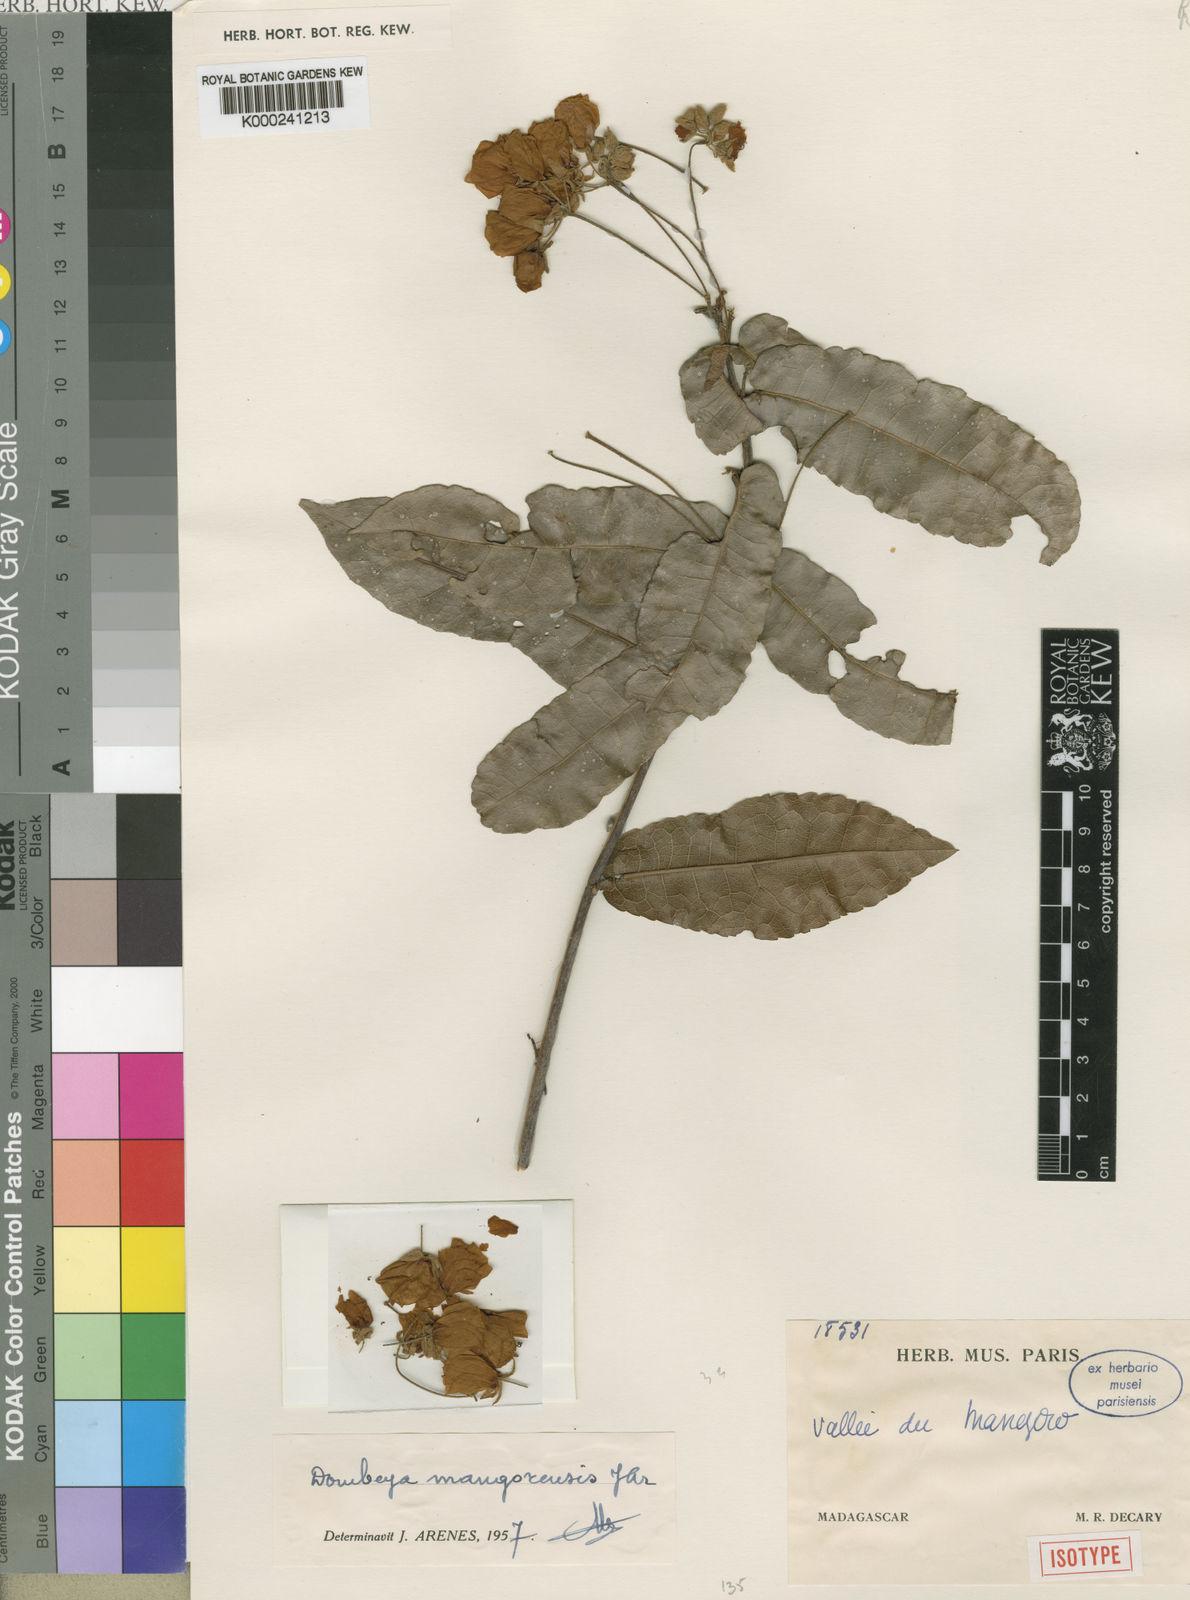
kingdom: Plantae
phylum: Tracheophyta
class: Magnoliopsida
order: Malvales
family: Malvaceae
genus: Dombeya
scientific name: Dombeya mangorensis
